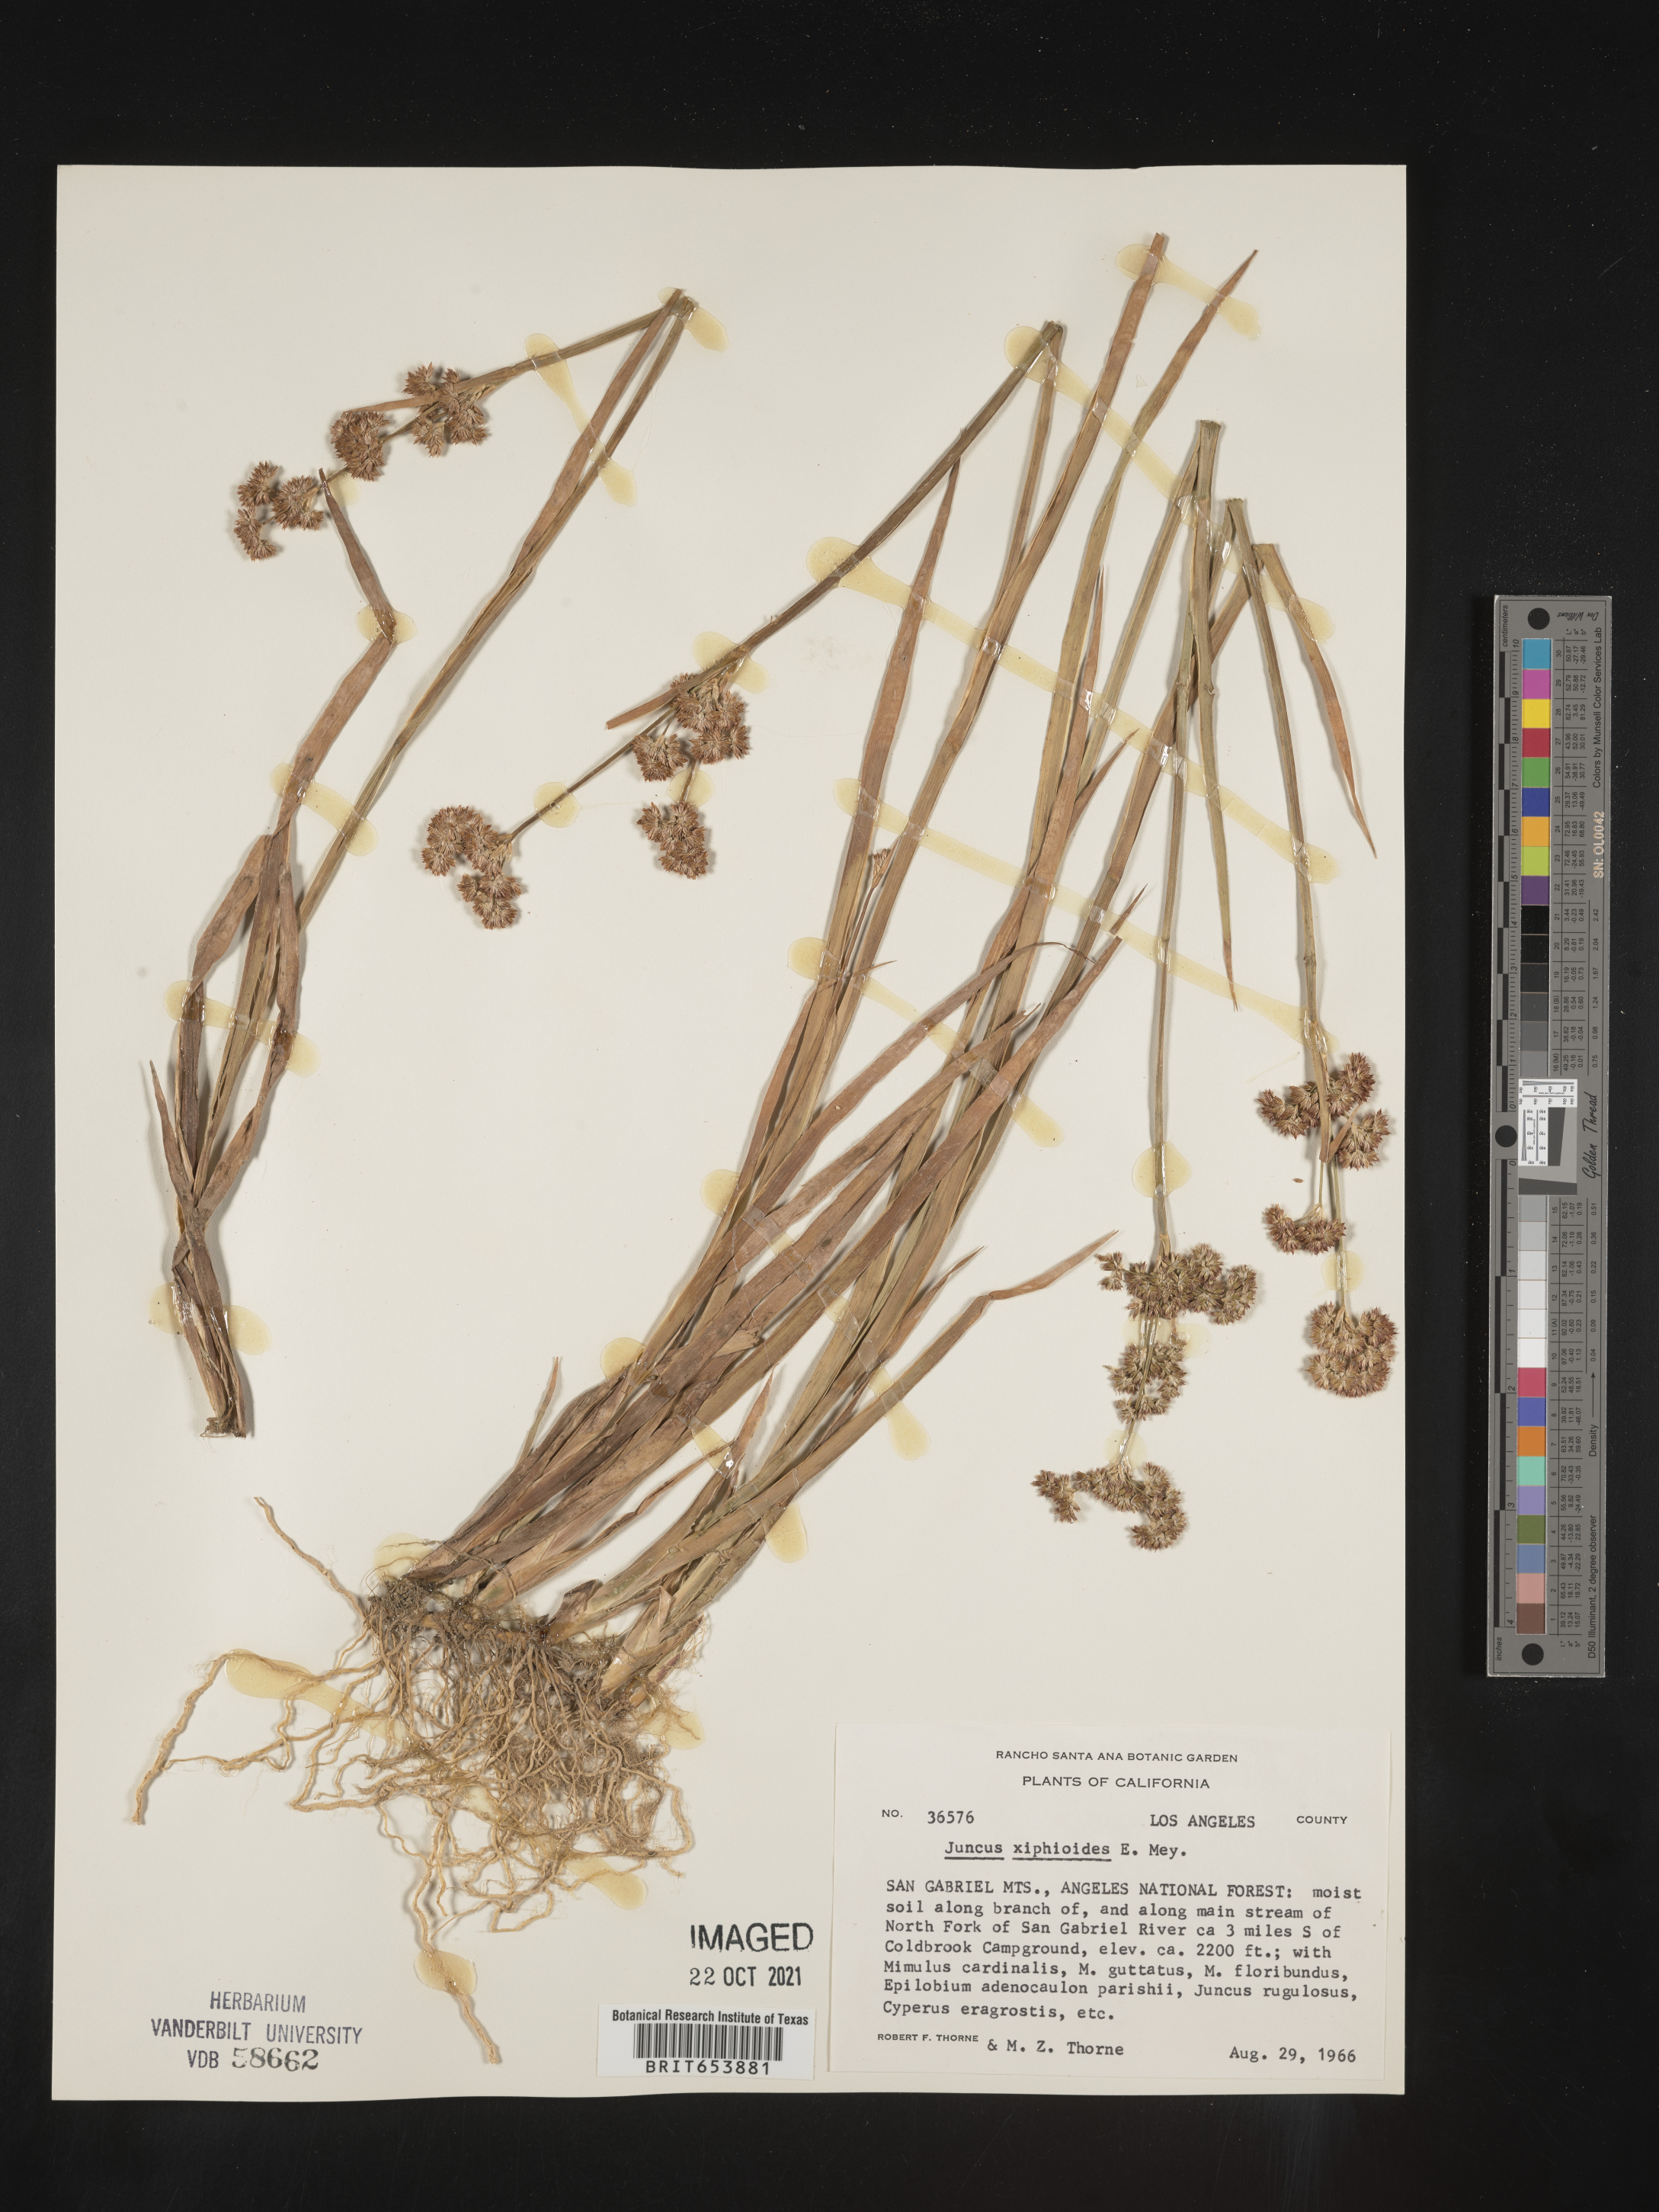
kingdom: Plantae
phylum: Tracheophyta
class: Liliopsida
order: Poales
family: Juncaceae
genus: Juncus
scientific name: Juncus xiphioides
